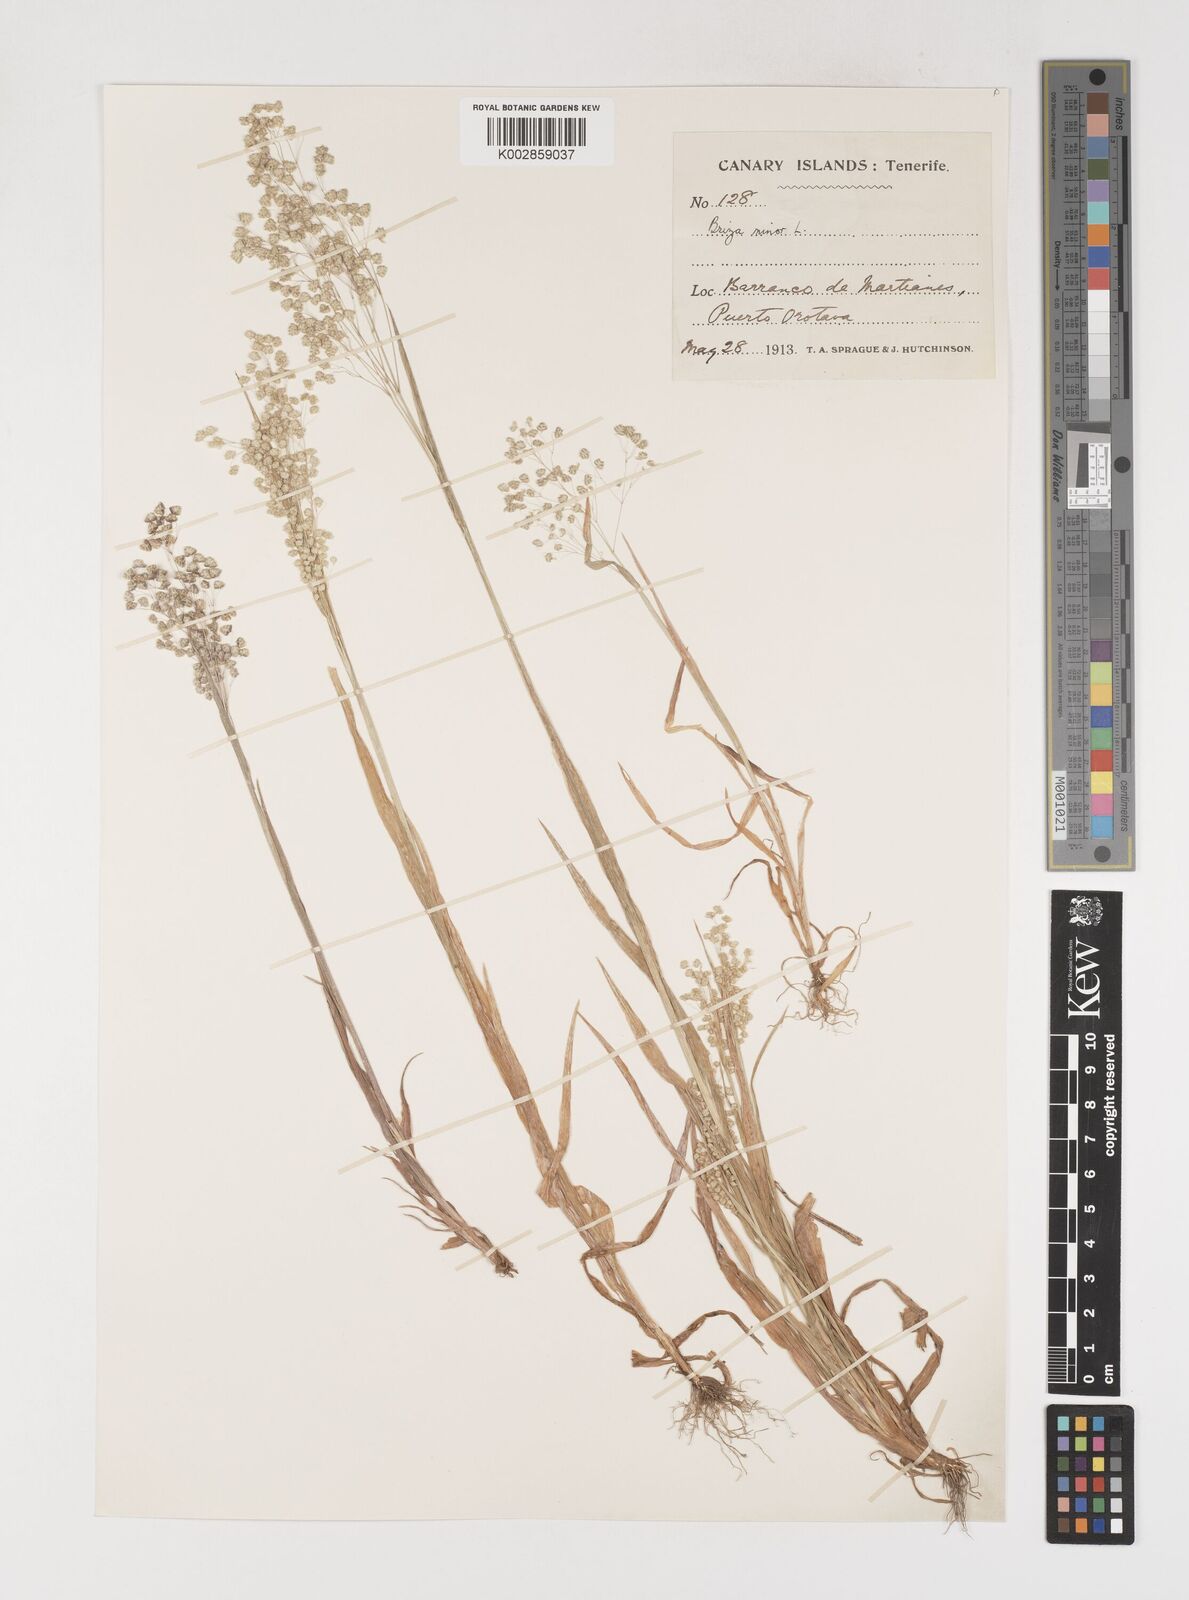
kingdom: Plantae
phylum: Tracheophyta
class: Liliopsida
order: Poales
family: Poaceae
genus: Briza
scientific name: Briza minor
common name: Lesser quaking-grass
